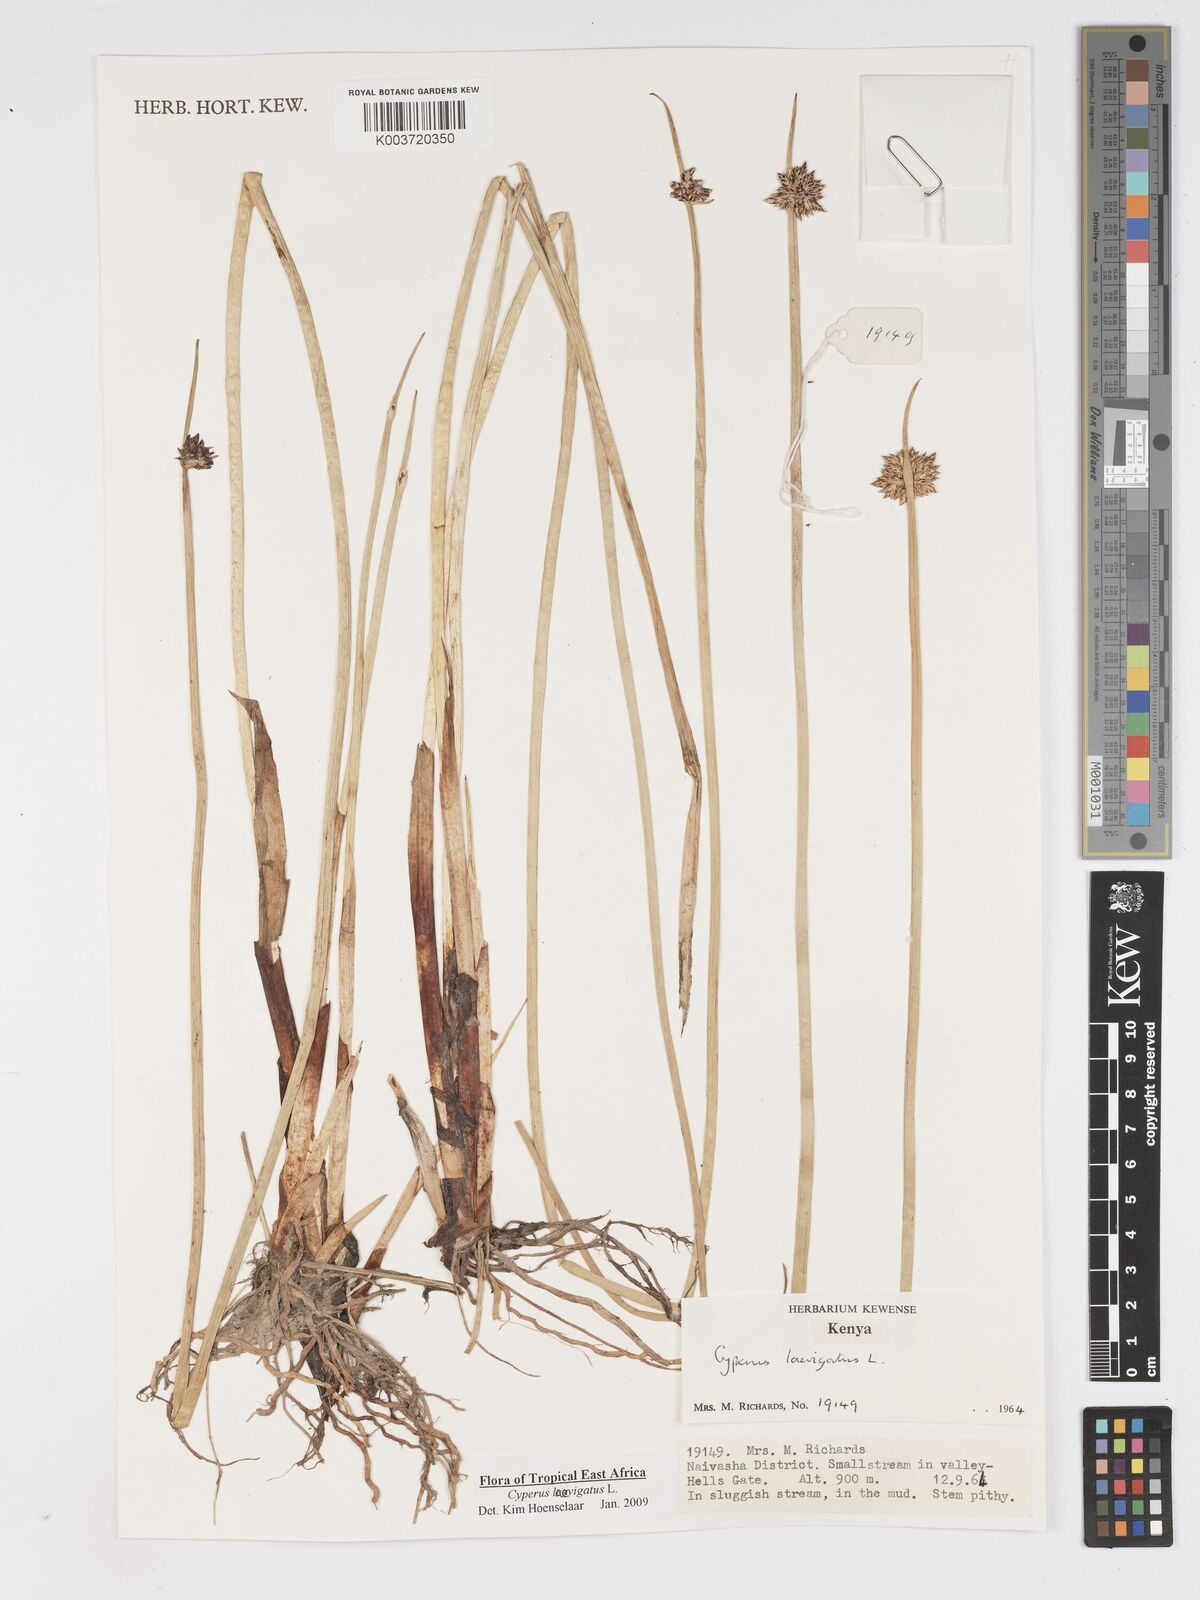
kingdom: Plantae
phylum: Tracheophyta
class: Liliopsida
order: Poales
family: Cyperaceae
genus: Cyperus
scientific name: Cyperus laevigatus
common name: Smooth flat sedge
